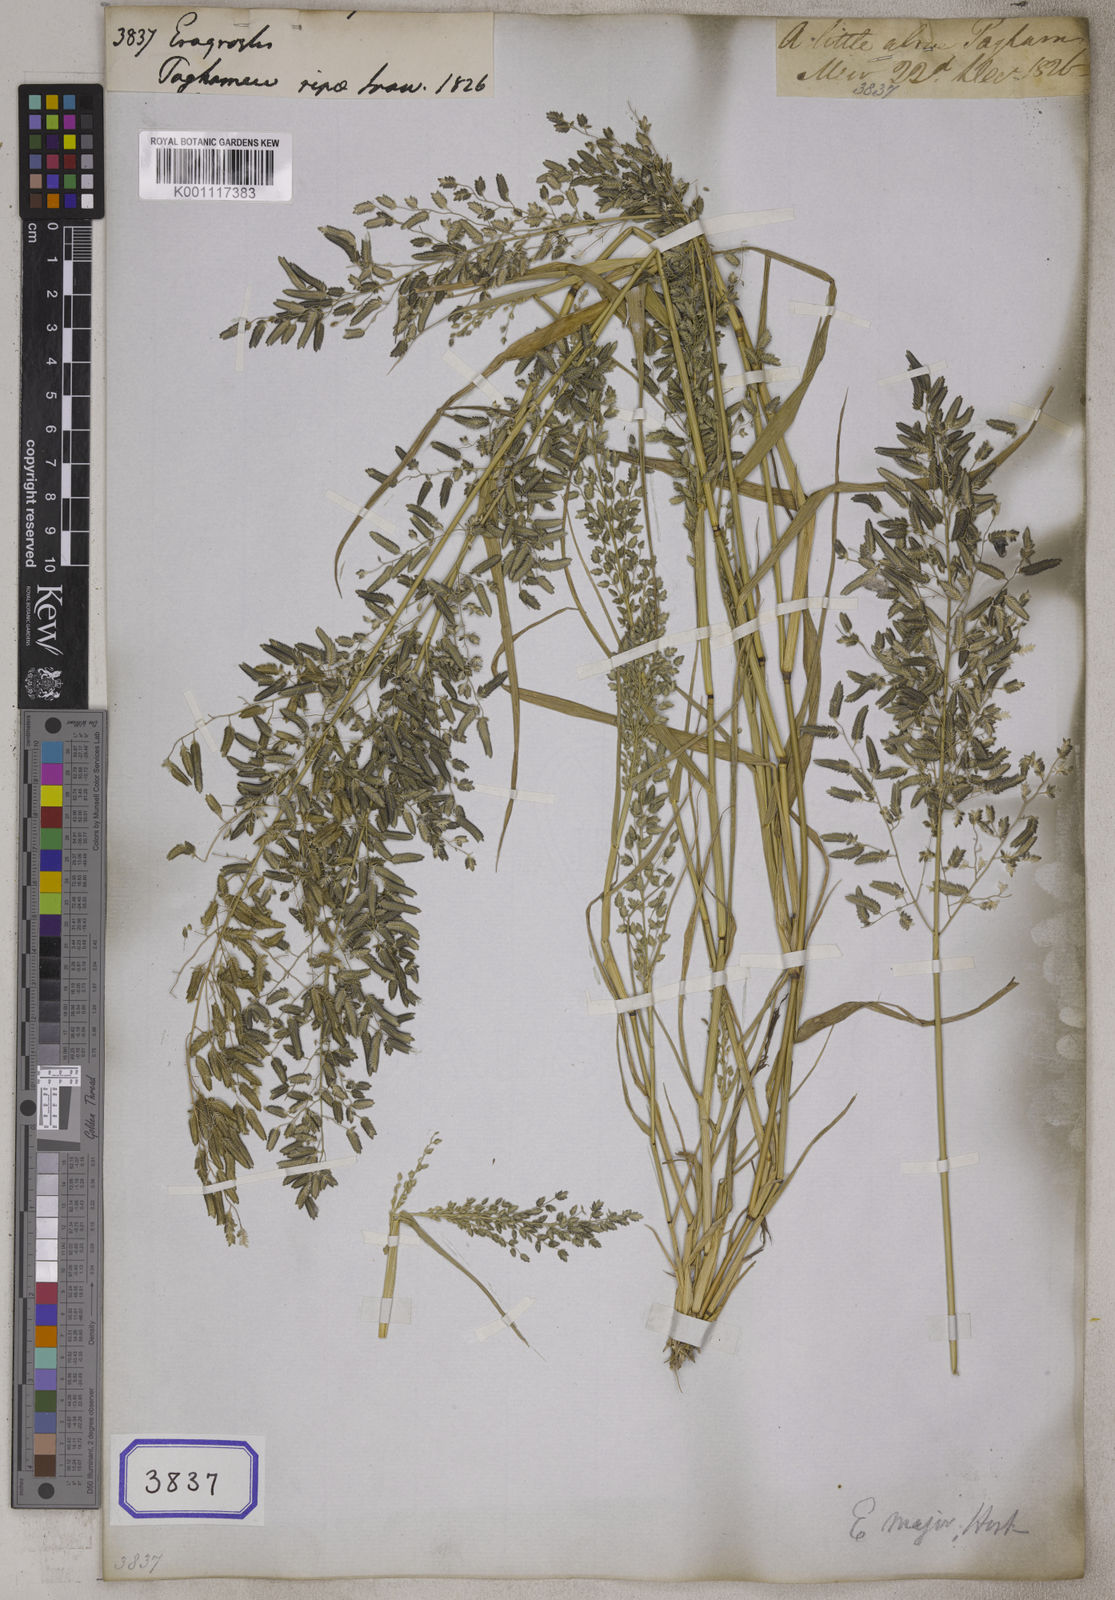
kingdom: Plantae
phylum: Tracheophyta
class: Liliopsida
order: Poales
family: Poaceae
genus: Eragrostis
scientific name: Eragrostis
